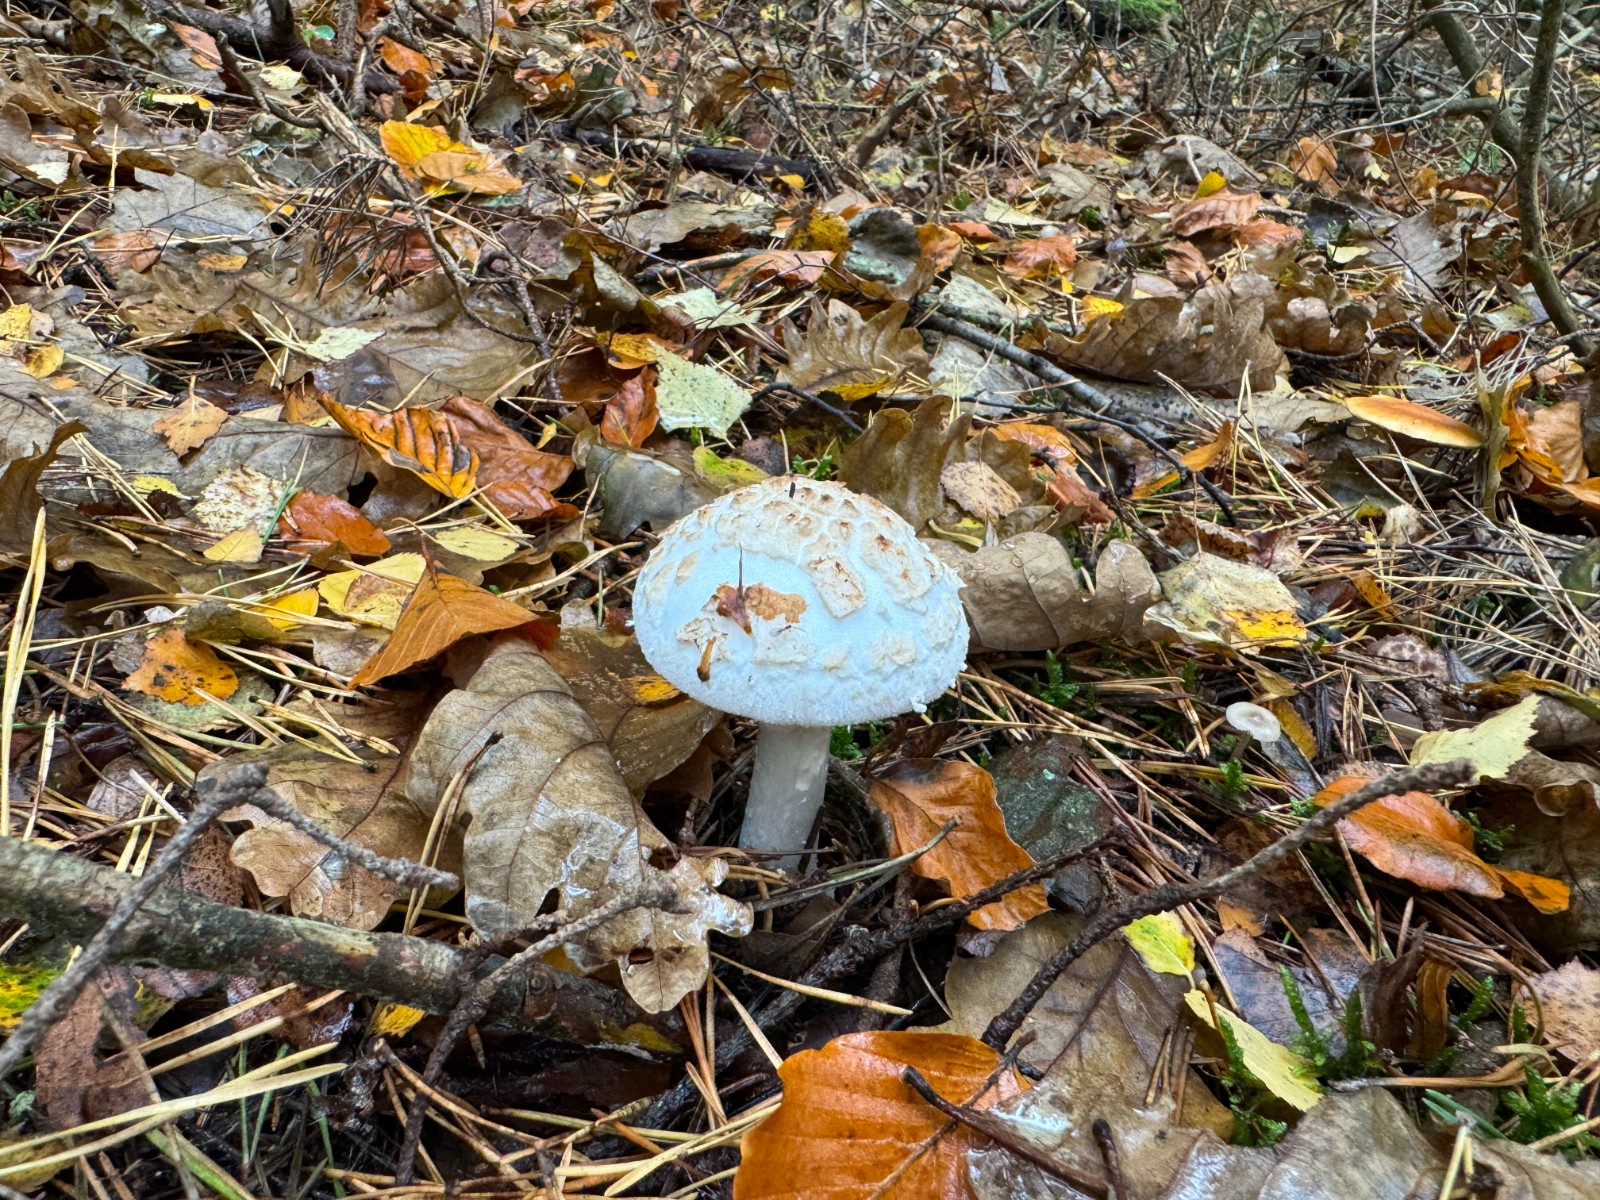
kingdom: Fungi
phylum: Basidiomycota
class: Agaricomycetes
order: Agaricales
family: Amanitaceae
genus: Amanita
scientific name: Amanita citrina
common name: kugleknoldet fluesvamp
